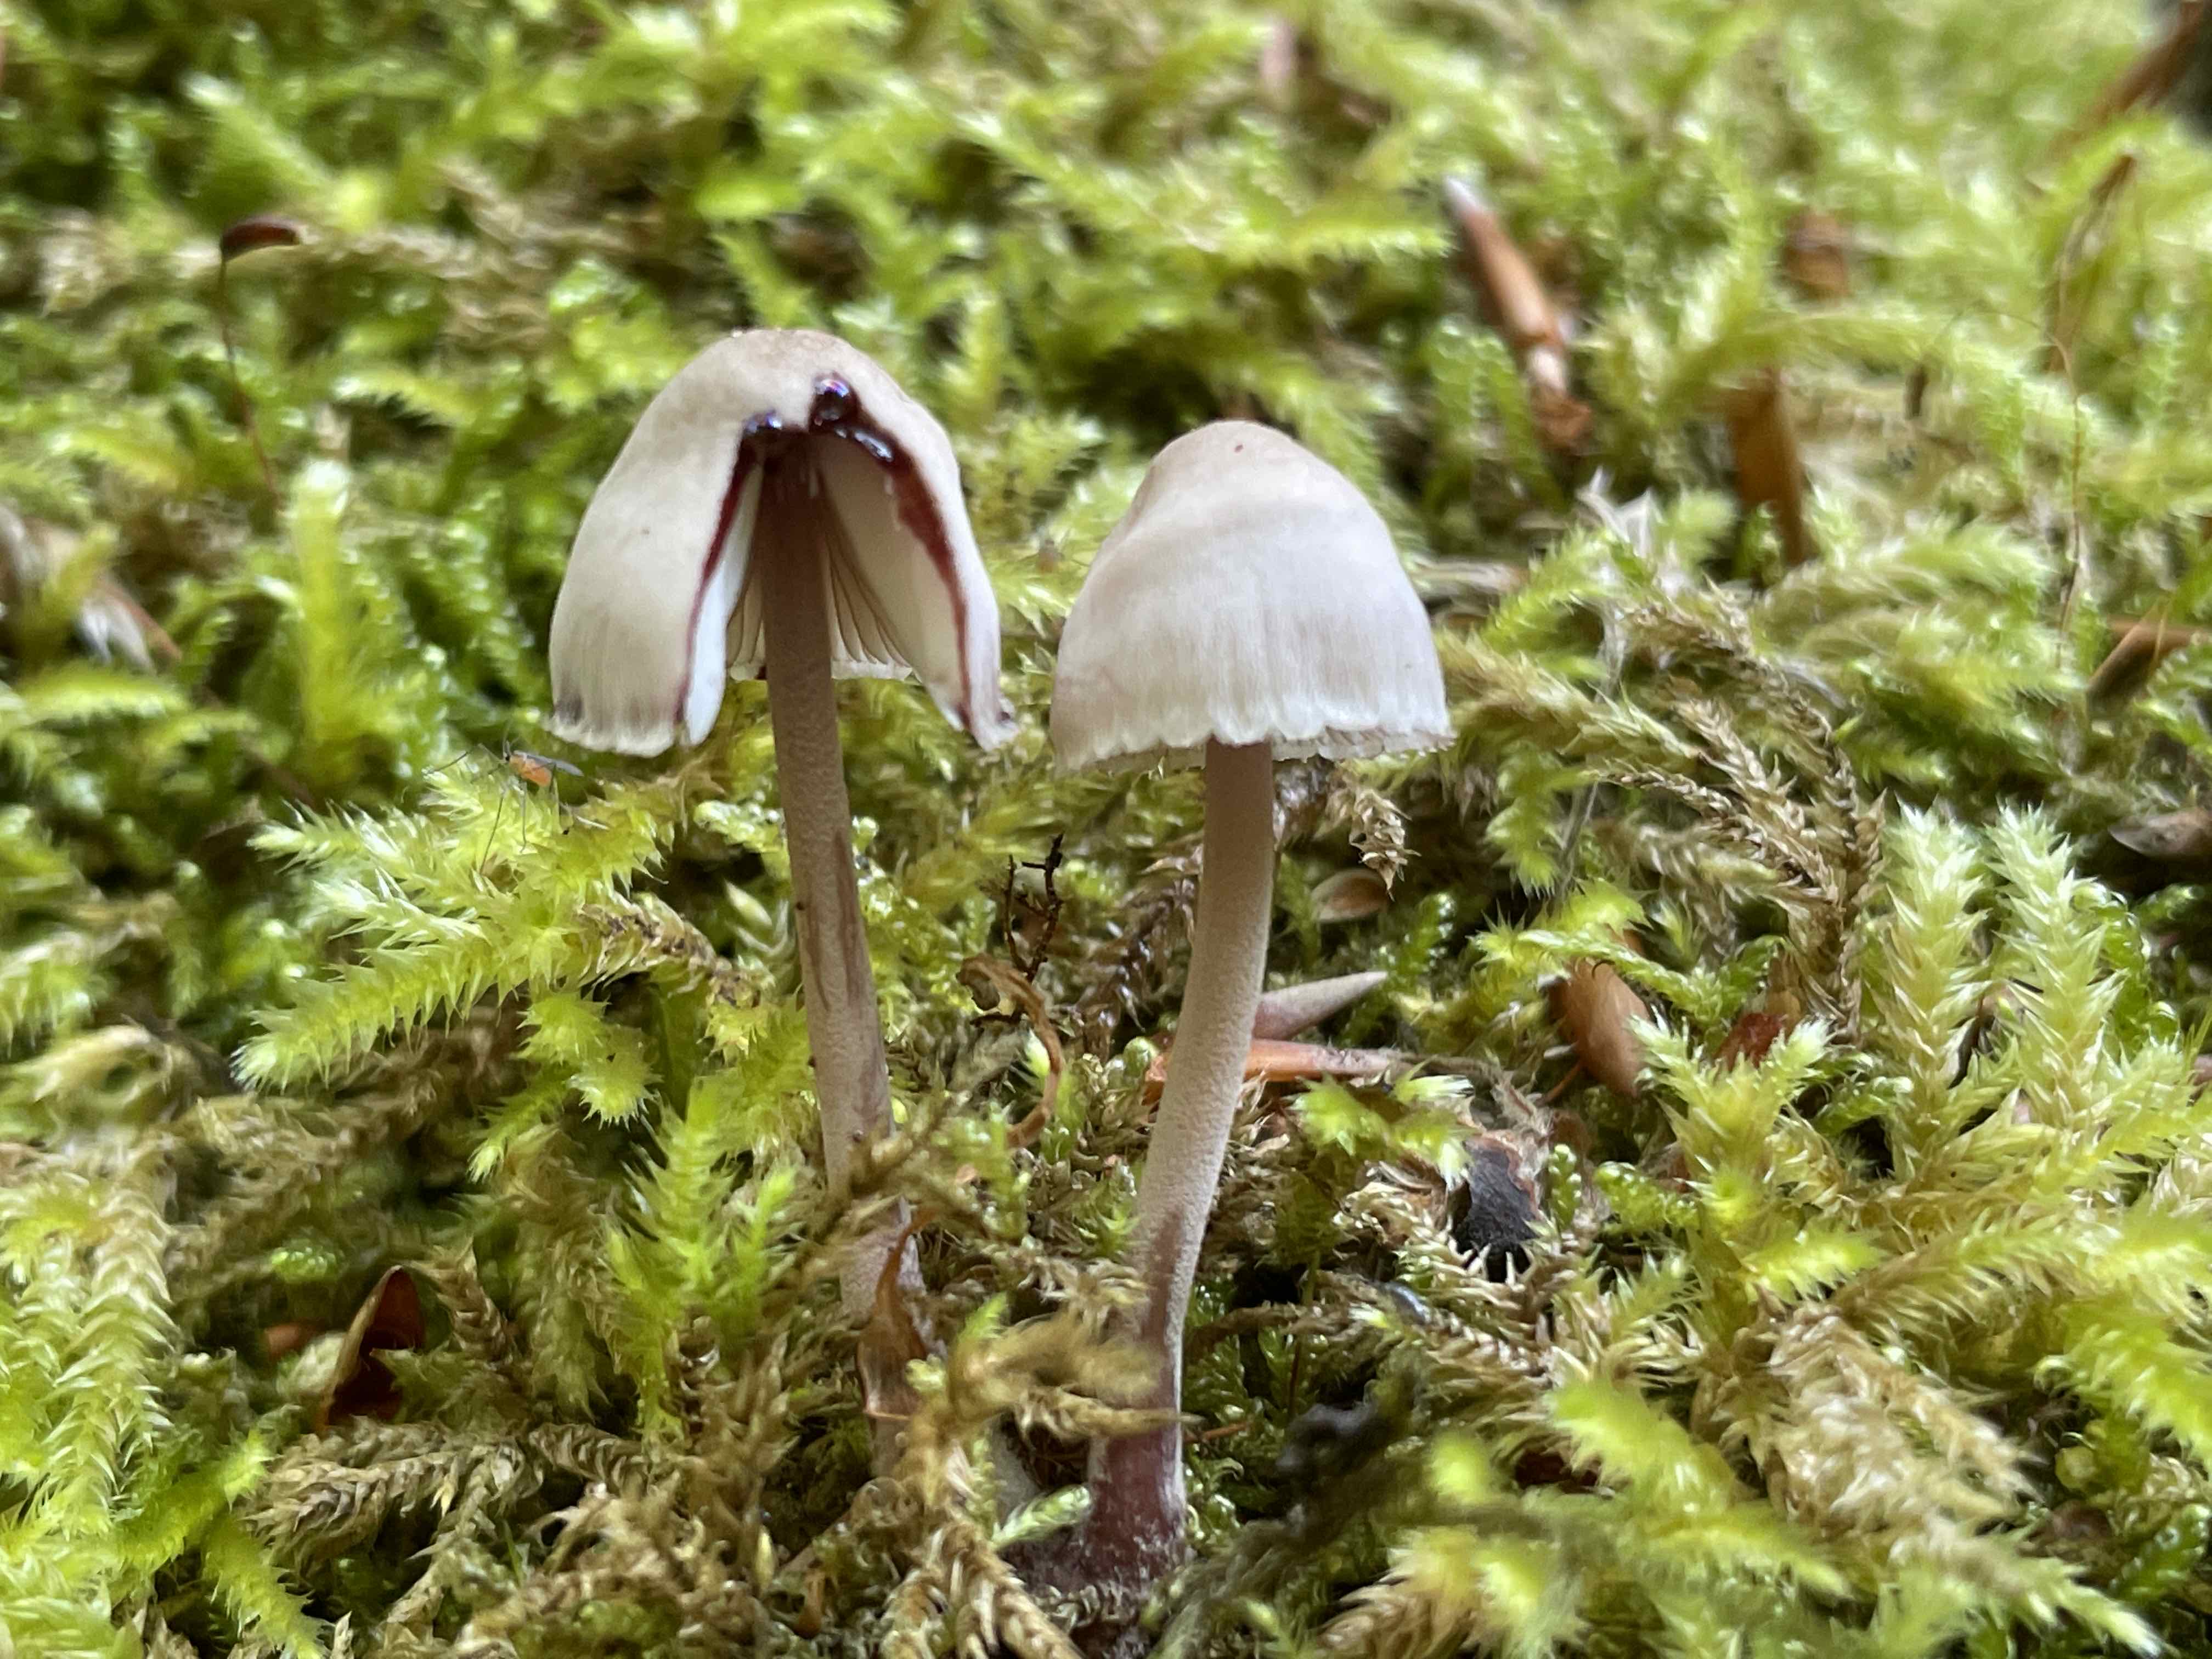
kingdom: Fungi
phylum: Basidiomycota
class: Agaricomycetes
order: Agaricales
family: Mycenaceae
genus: Mycena
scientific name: Mycena haematopus
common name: blødende huesvamp
